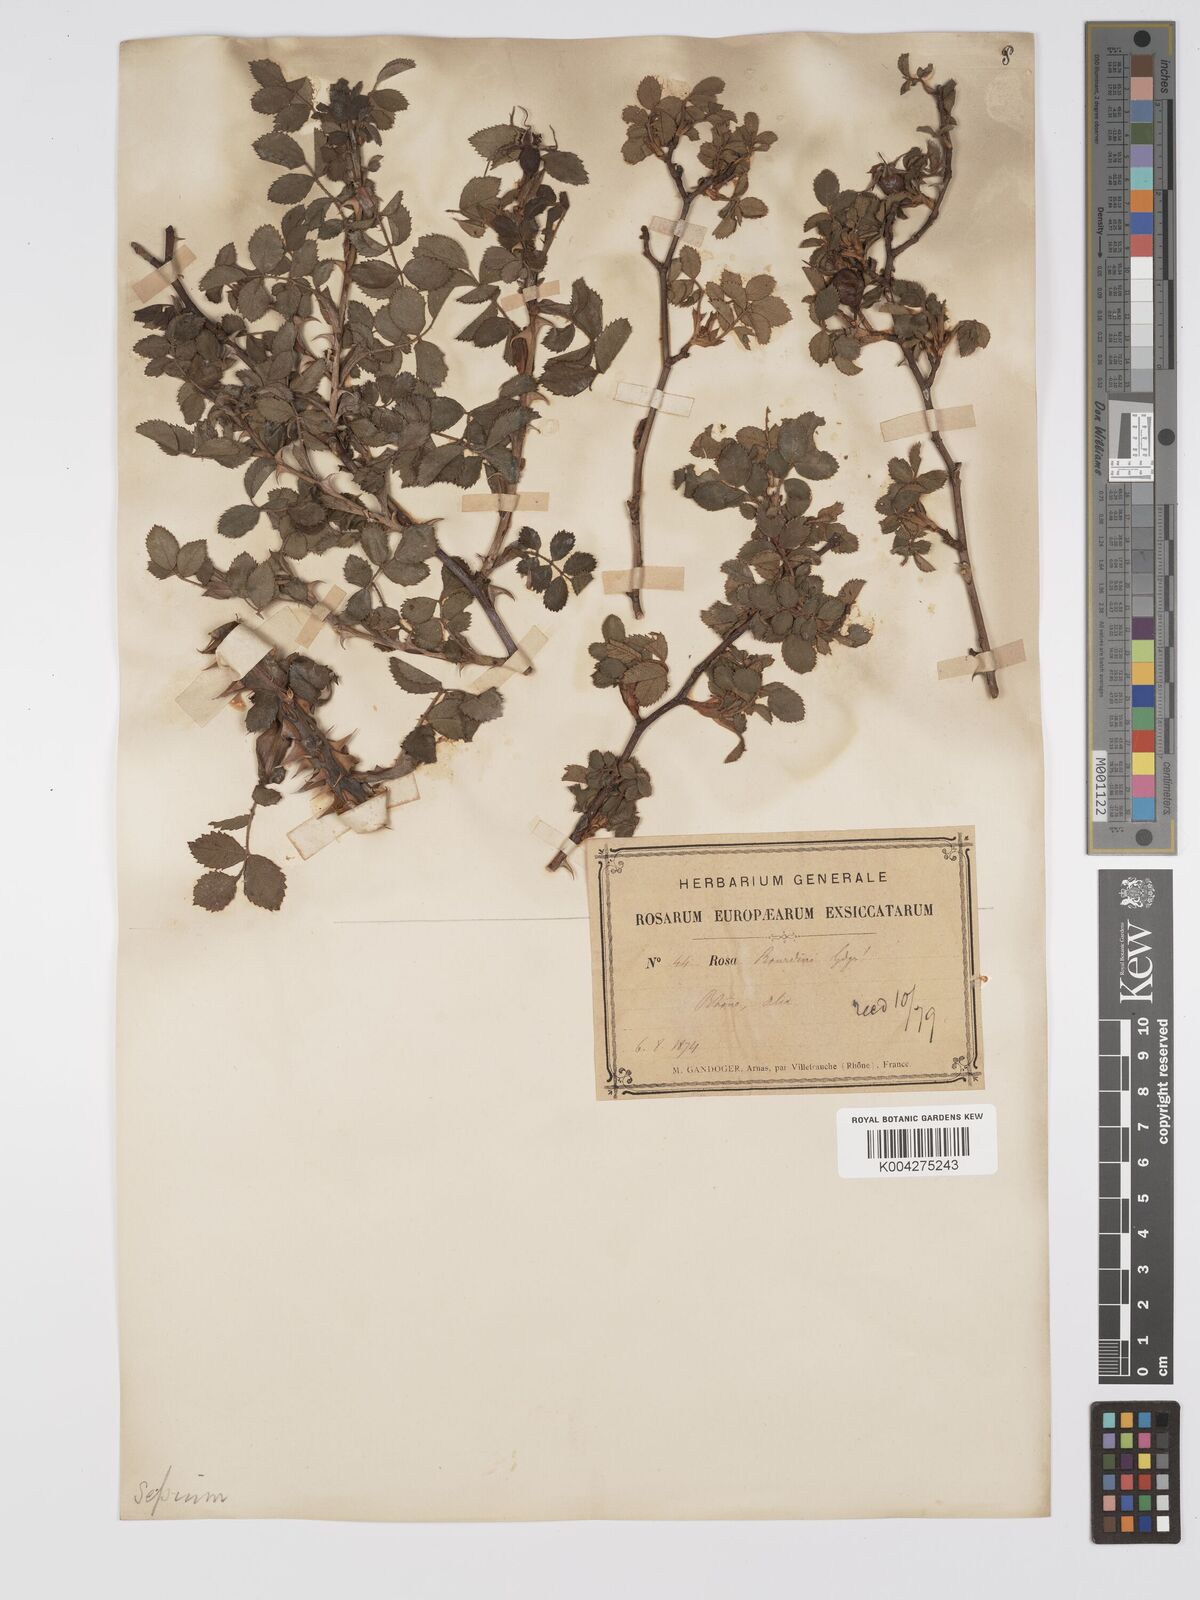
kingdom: Plantae
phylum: Tracheophyta
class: Magnoliopsida
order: Rosales
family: Rosaceae
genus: Rosa
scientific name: Rosa
